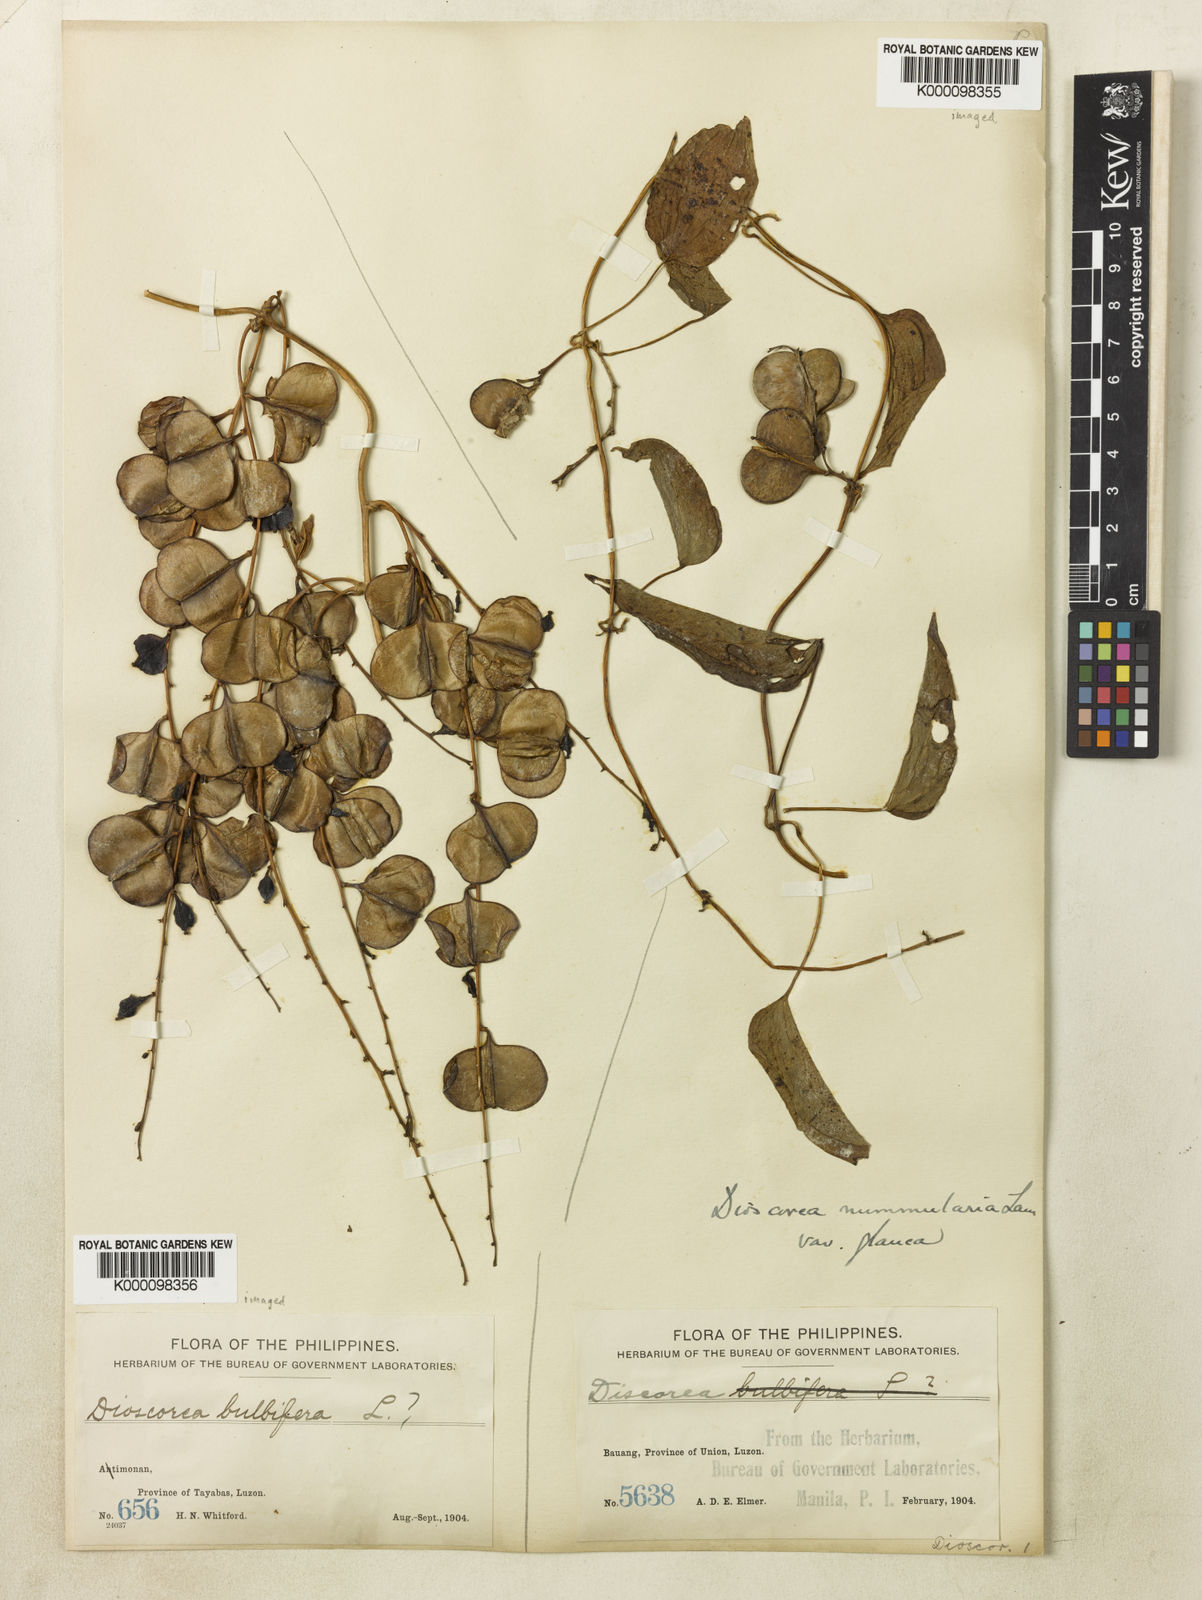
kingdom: Plantae
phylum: Tracheophyta
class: Liliopsida
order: Dioscoreales
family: Dioscoreaceae
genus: Dioscorea
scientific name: Dioscorea nummularia
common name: Pacific yam
